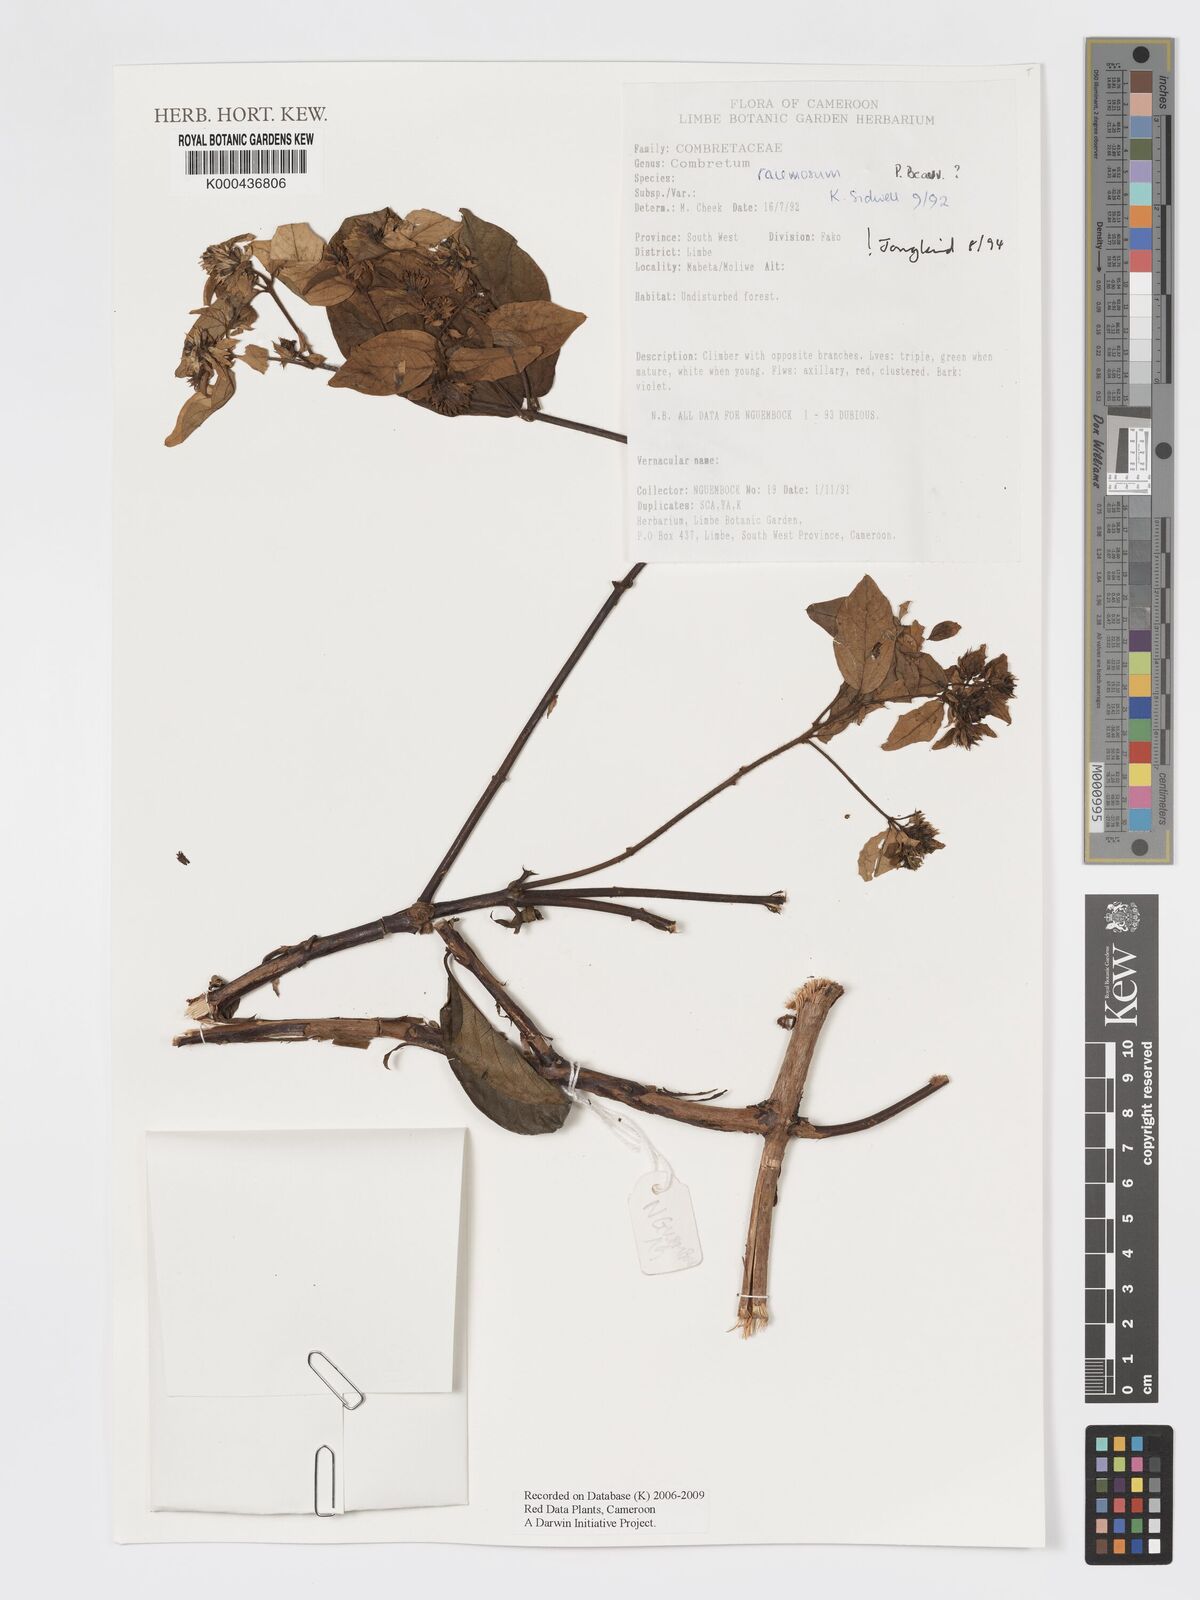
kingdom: Plantae
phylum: Tracheophyta
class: Magnoliopsida
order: Myrtales
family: Combretaceae
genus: Combretum
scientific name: Combretum racemosum
